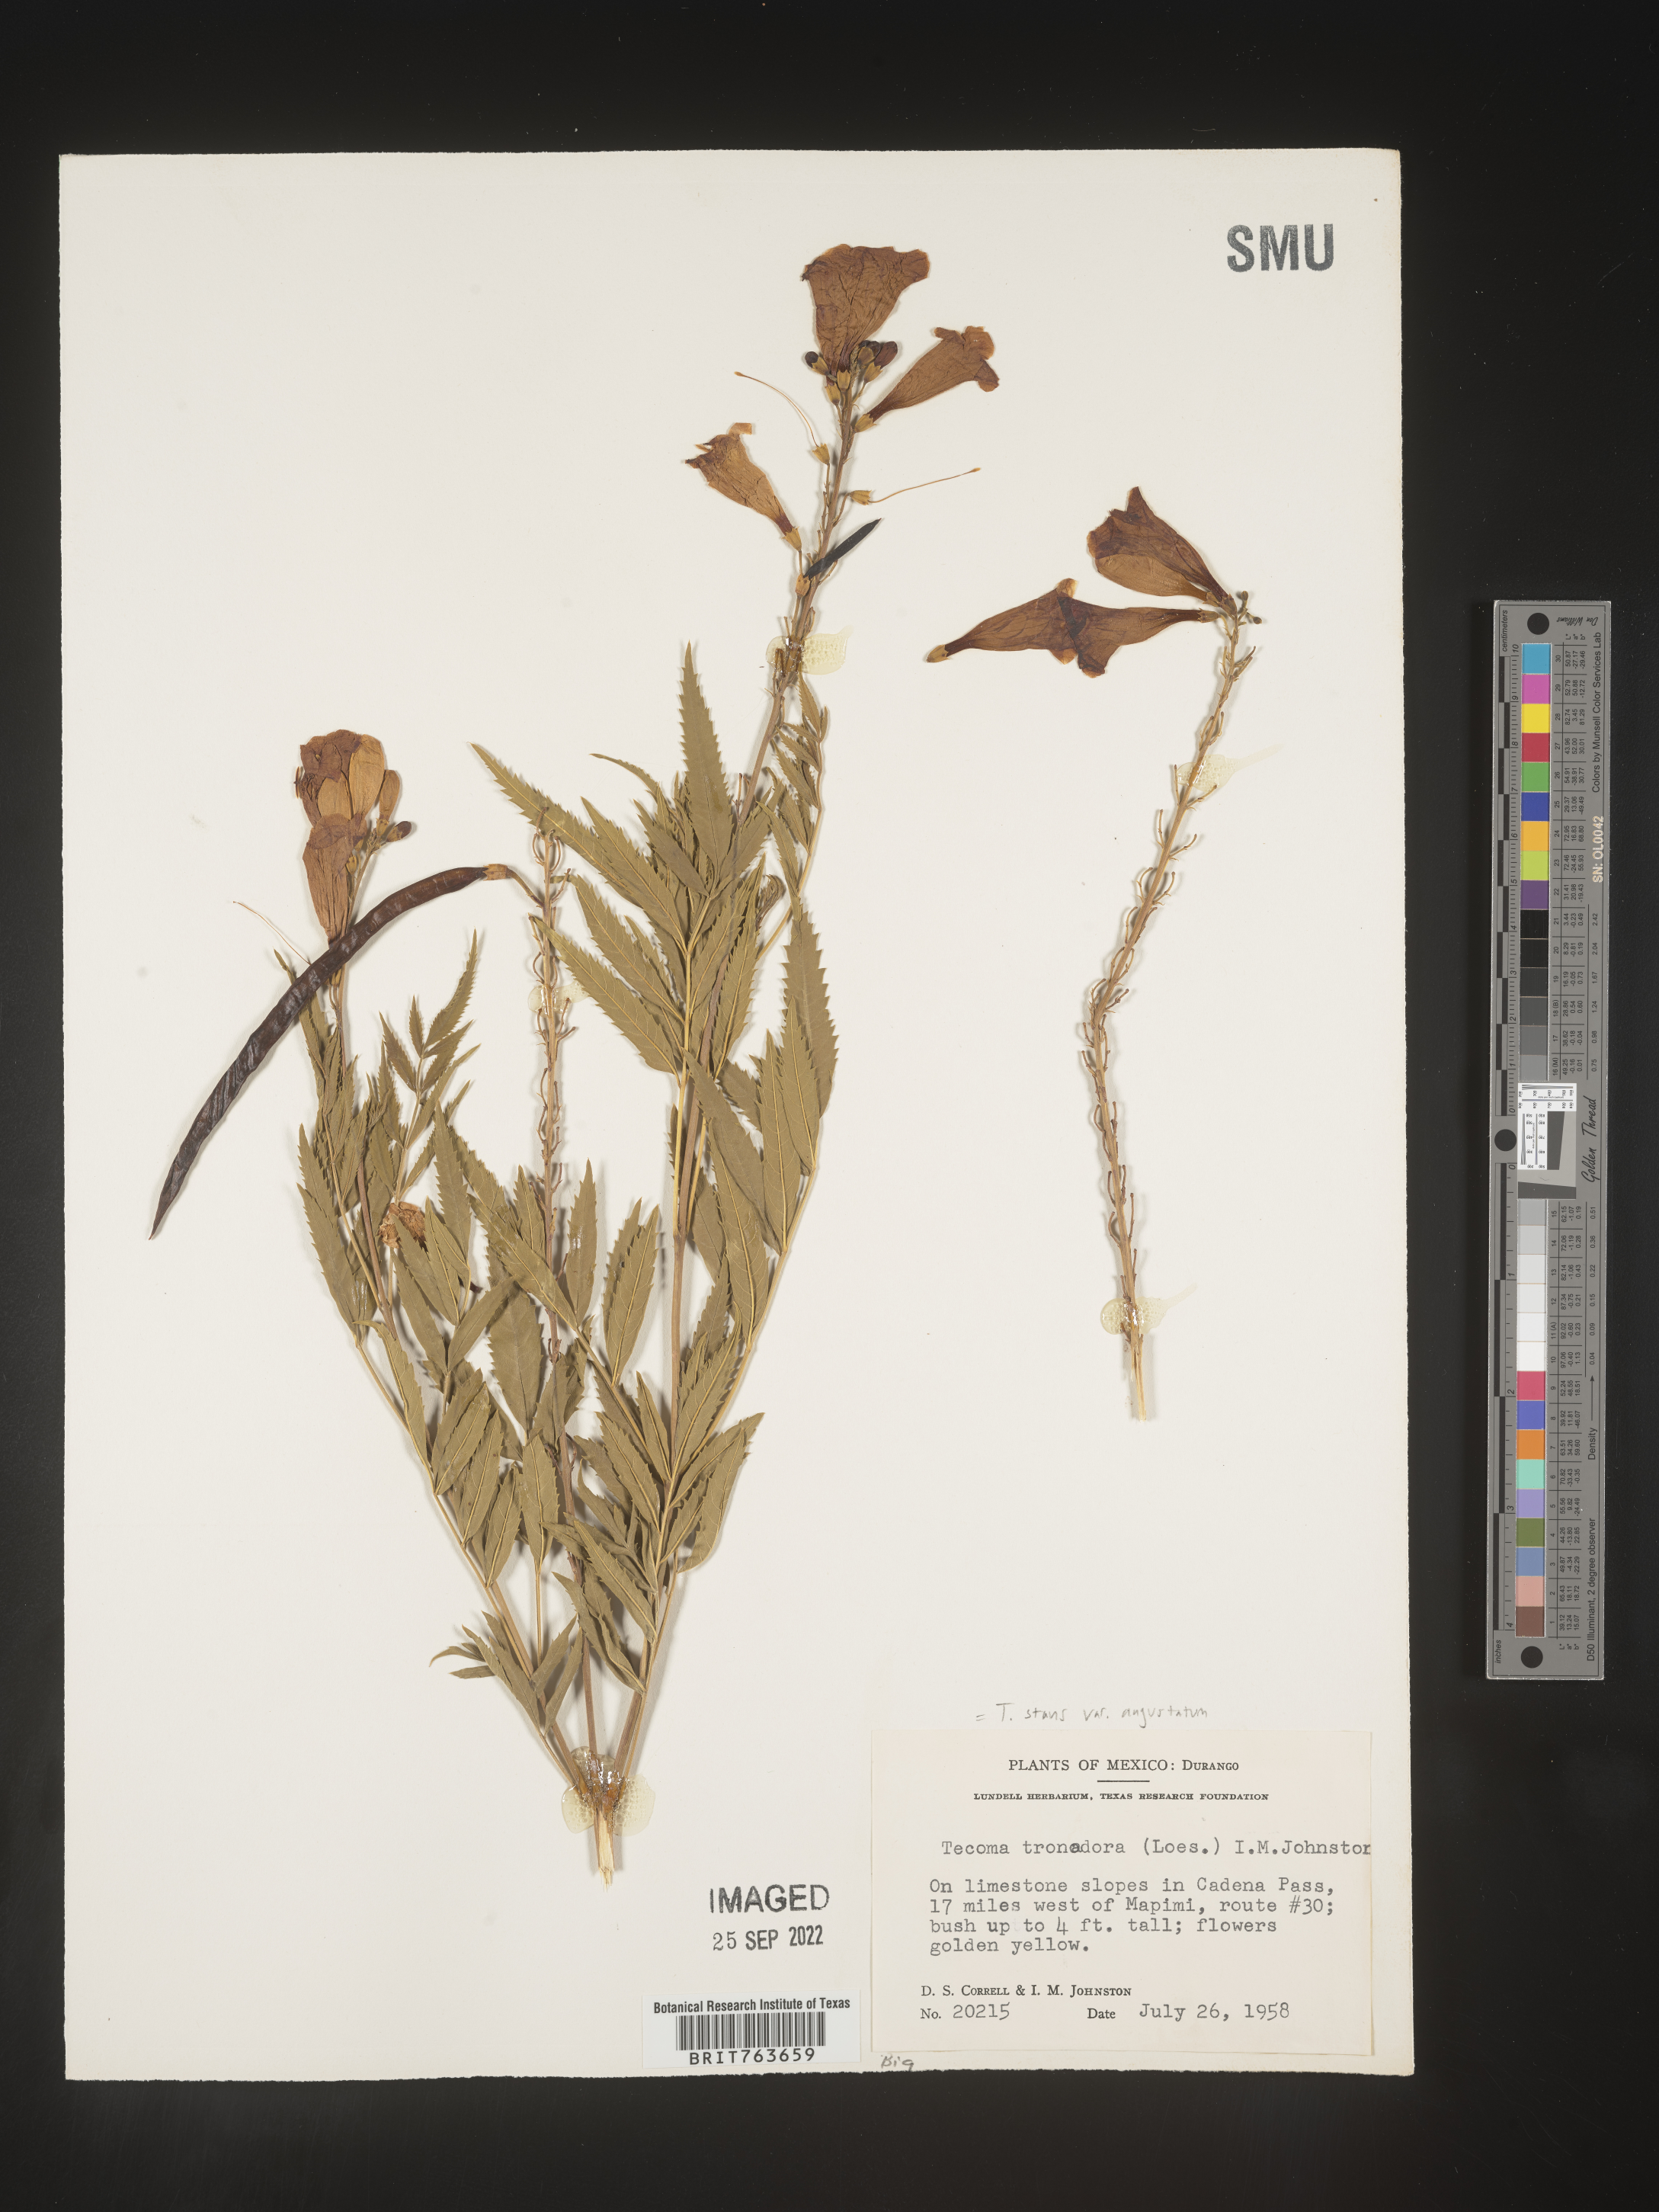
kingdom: Plantae
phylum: Tracheophyta
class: Magnoliopsida
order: Lamiales
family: Bignoniaceae
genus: Tecoma
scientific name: Tecoma
